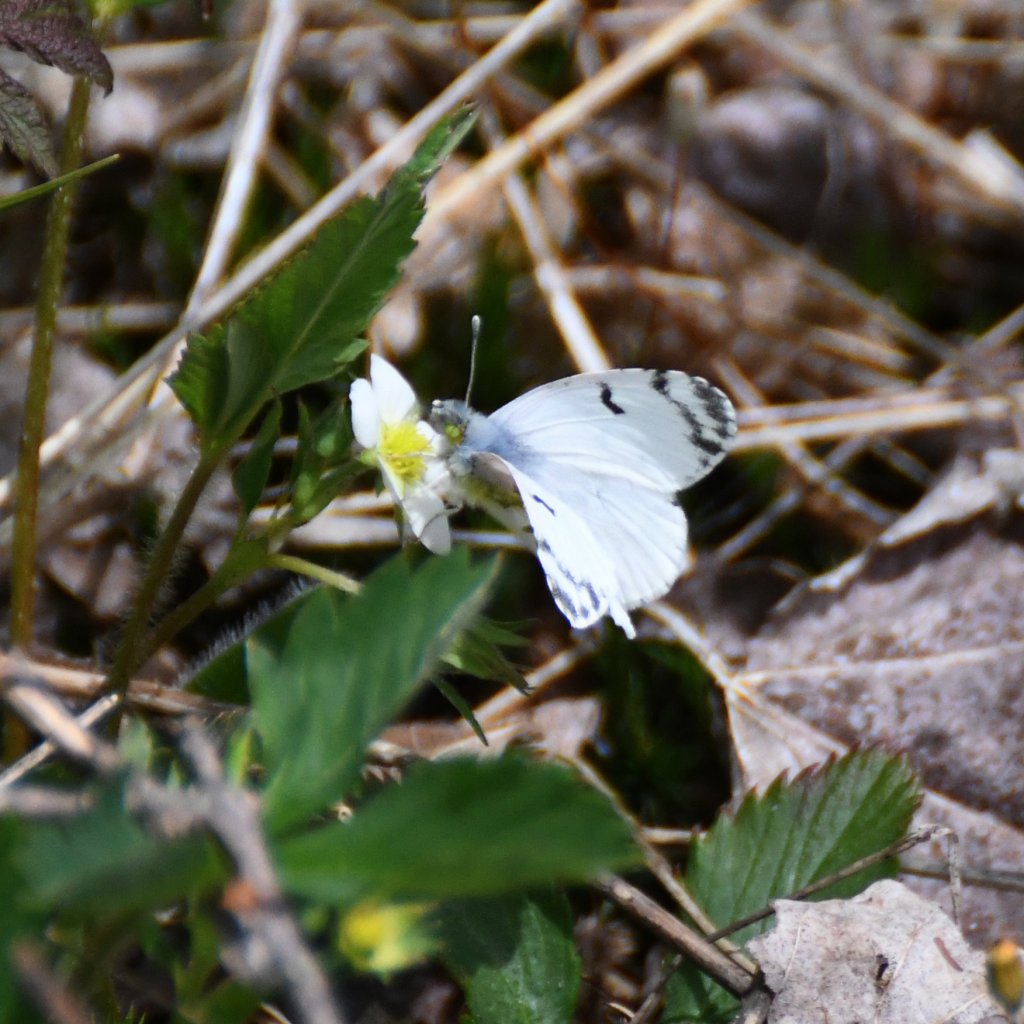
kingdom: Animalia
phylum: Arthropoda
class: Insecta
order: Lepidoptera
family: Pieridae
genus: Euchloe
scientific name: Euchloe olympia
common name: Olympia Marble
